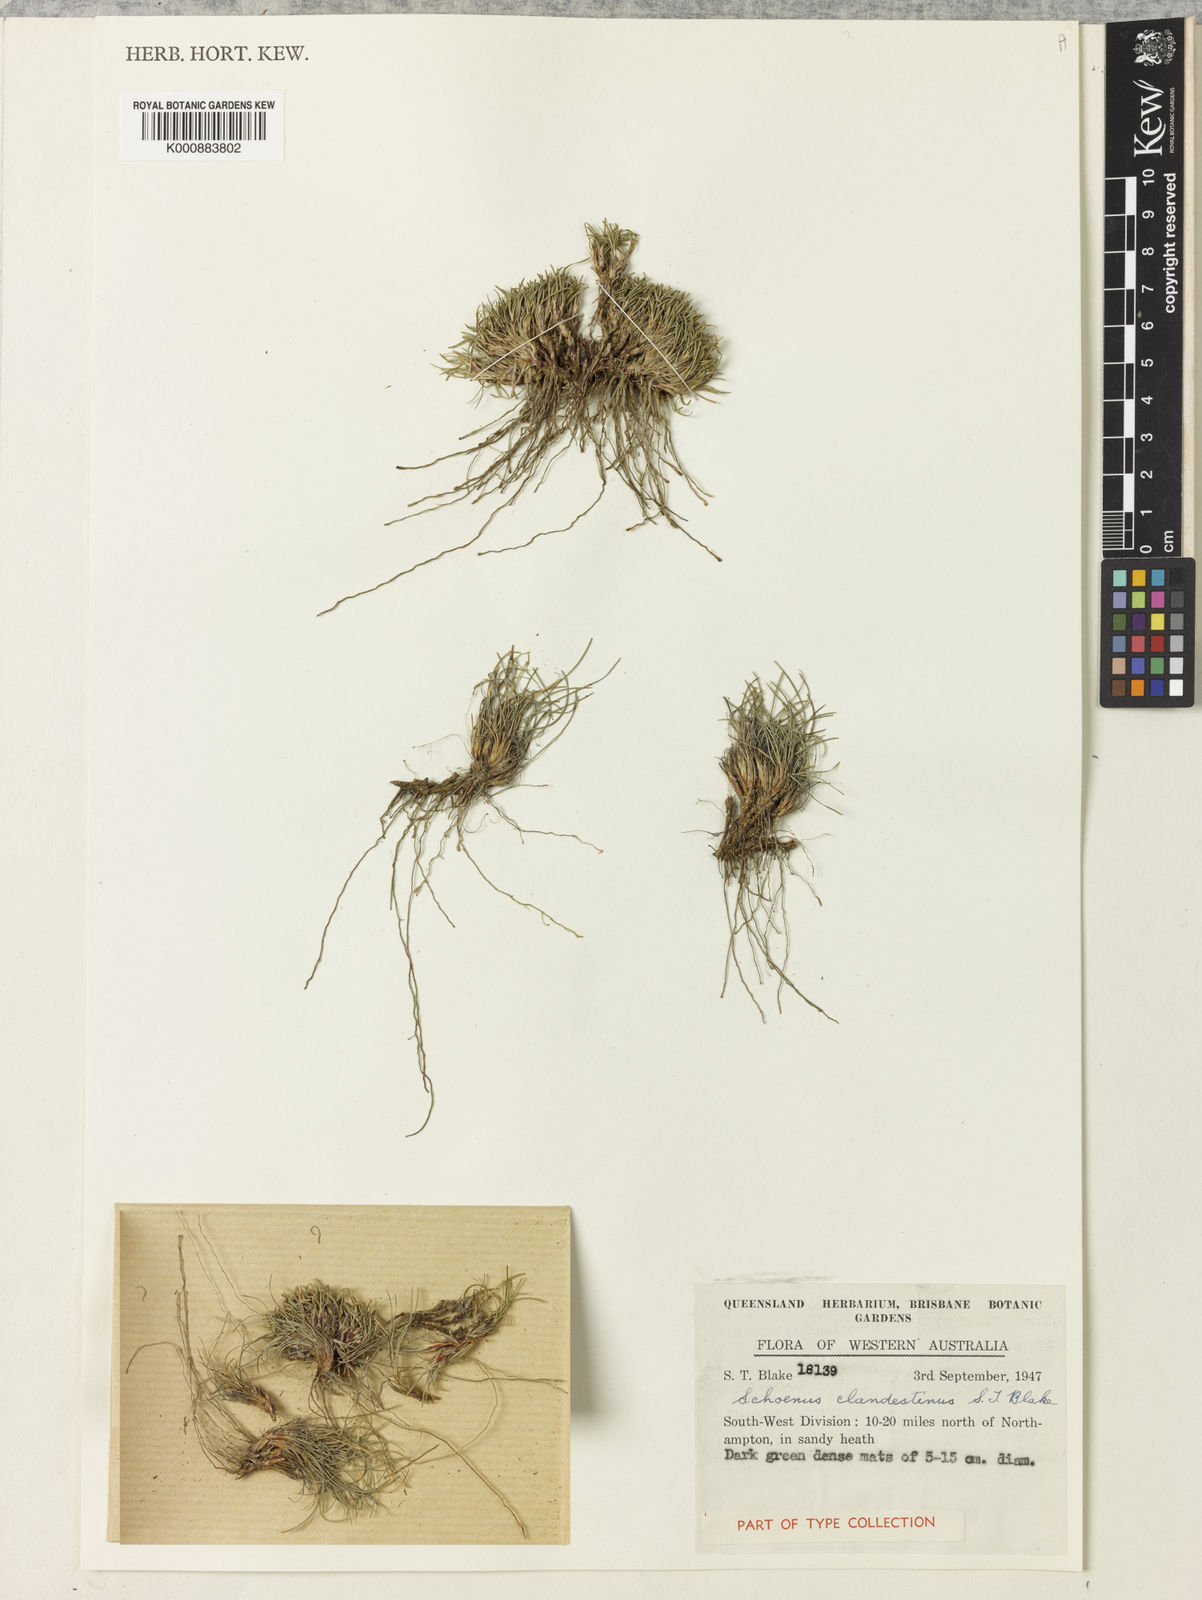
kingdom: Plantae
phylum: Tracheophyta
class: Liliopsida
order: Poales
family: Cyperaceae
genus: Schoenus
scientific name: Schoenus clandestinus
